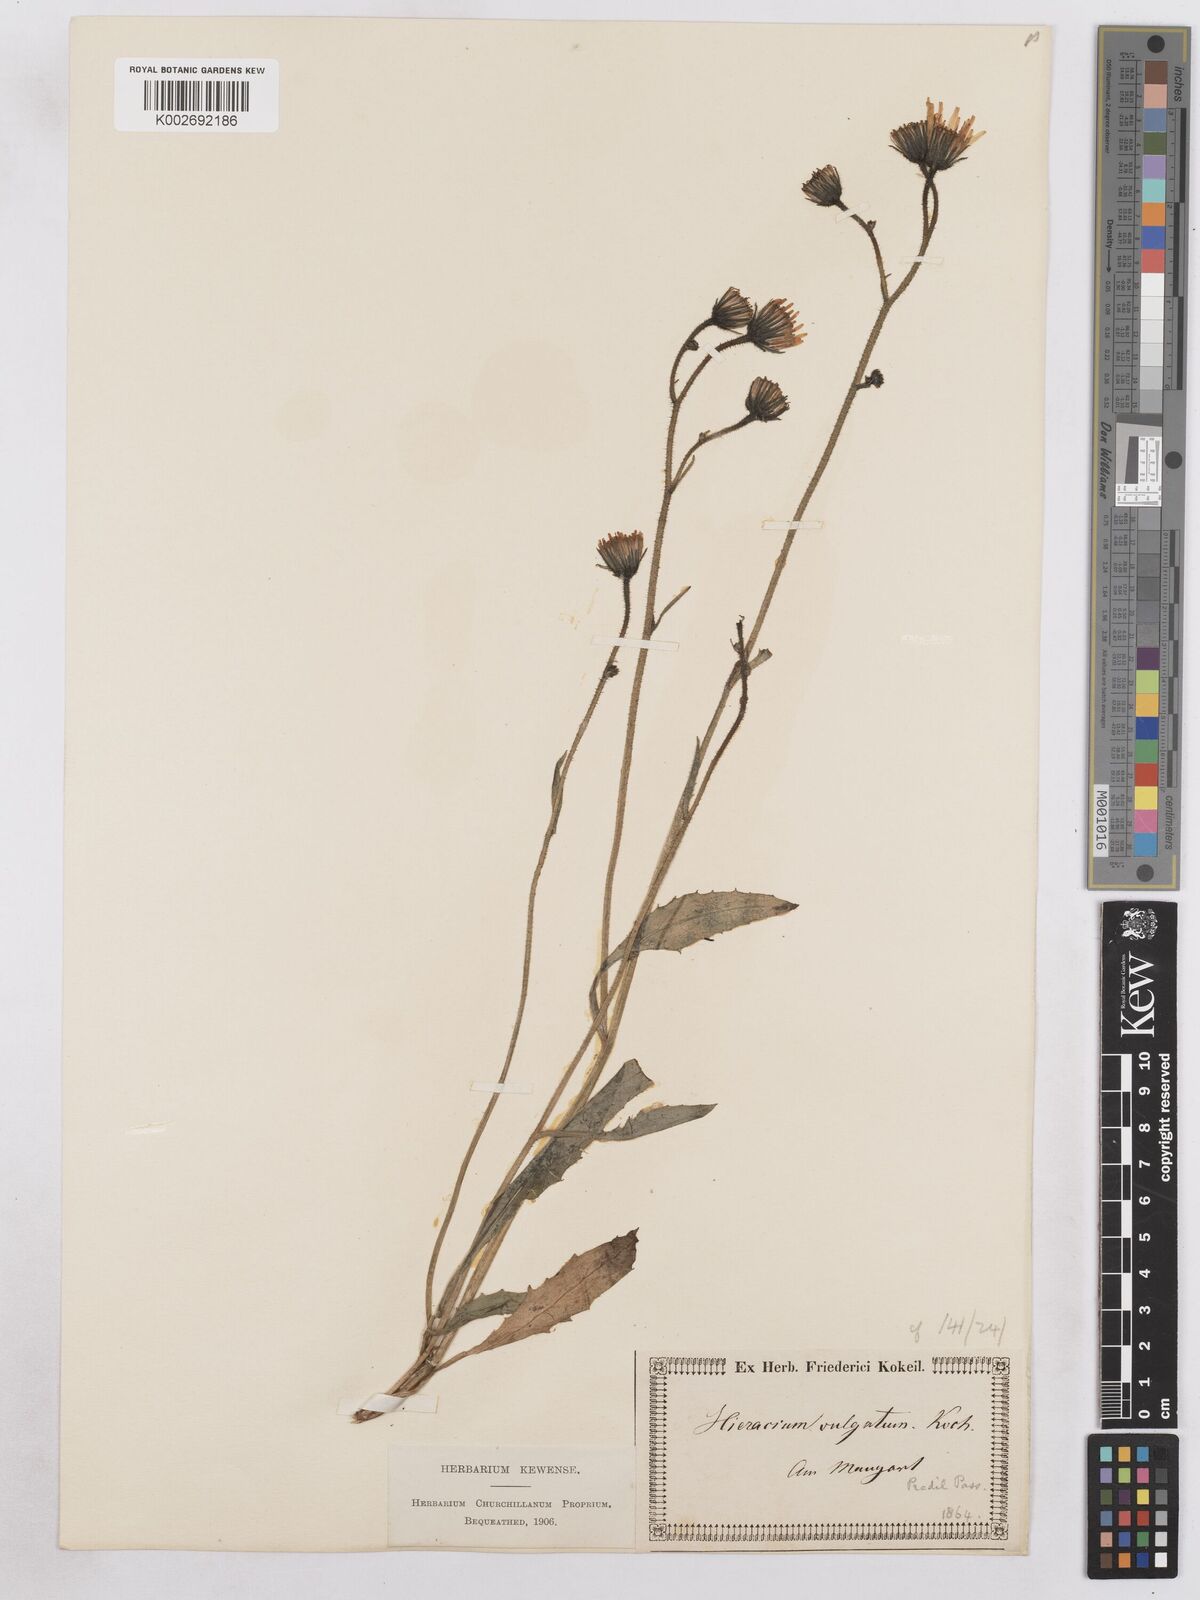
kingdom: Plantae
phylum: Tracheophyta
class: Magnoliopsida
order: Asterales
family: Asteraceae
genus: Hieracium
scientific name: Hieracium diaphanoides
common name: Fine-bracted hawkweed
